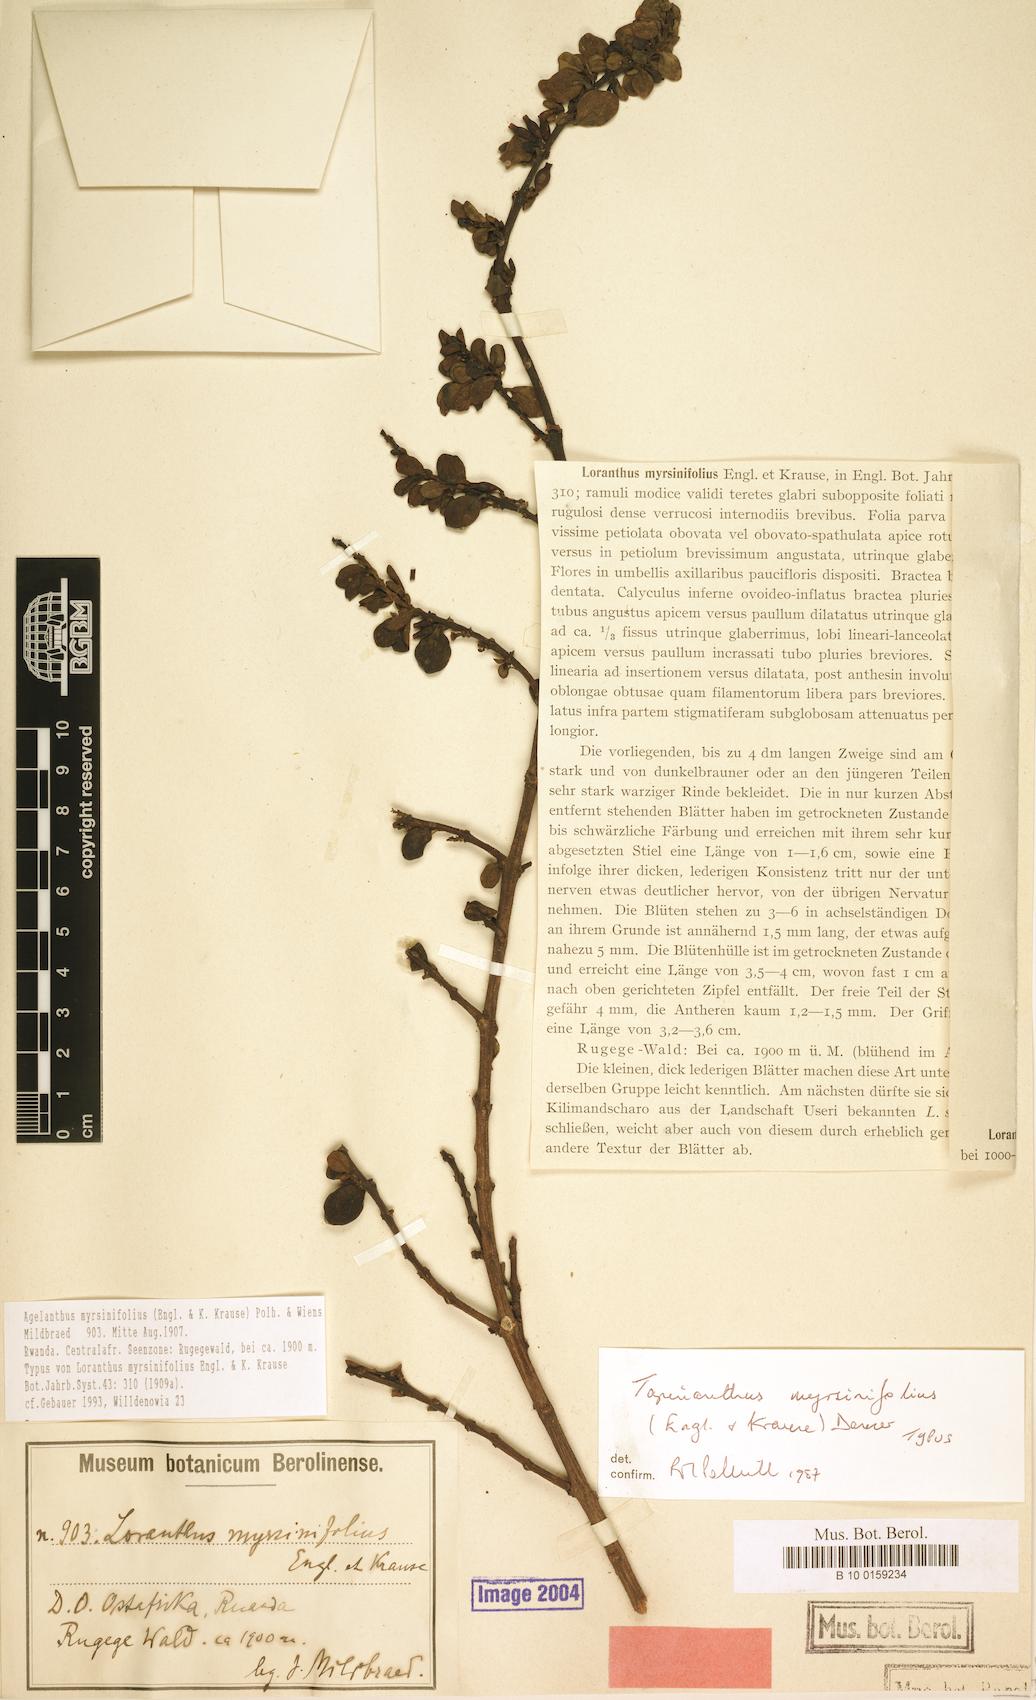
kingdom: Plantae
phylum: Tracheophyta
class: Magnoliopsida
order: Santalales
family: Loranthaceae
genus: Agelanthus
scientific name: Agelanthus myrsinifolius
